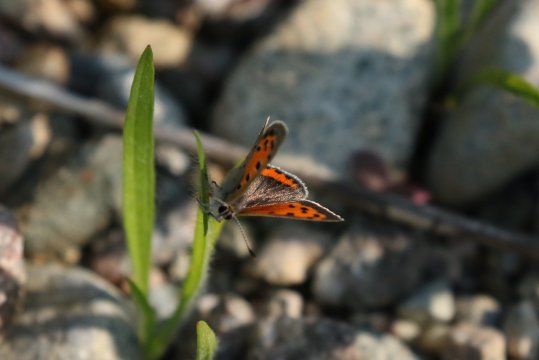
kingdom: Animalia
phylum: Arthropoda
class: Insecta
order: Lepidoptera
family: Lycaenidae
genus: Lycaena
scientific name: Lycaena phlaeas
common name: American Copper
